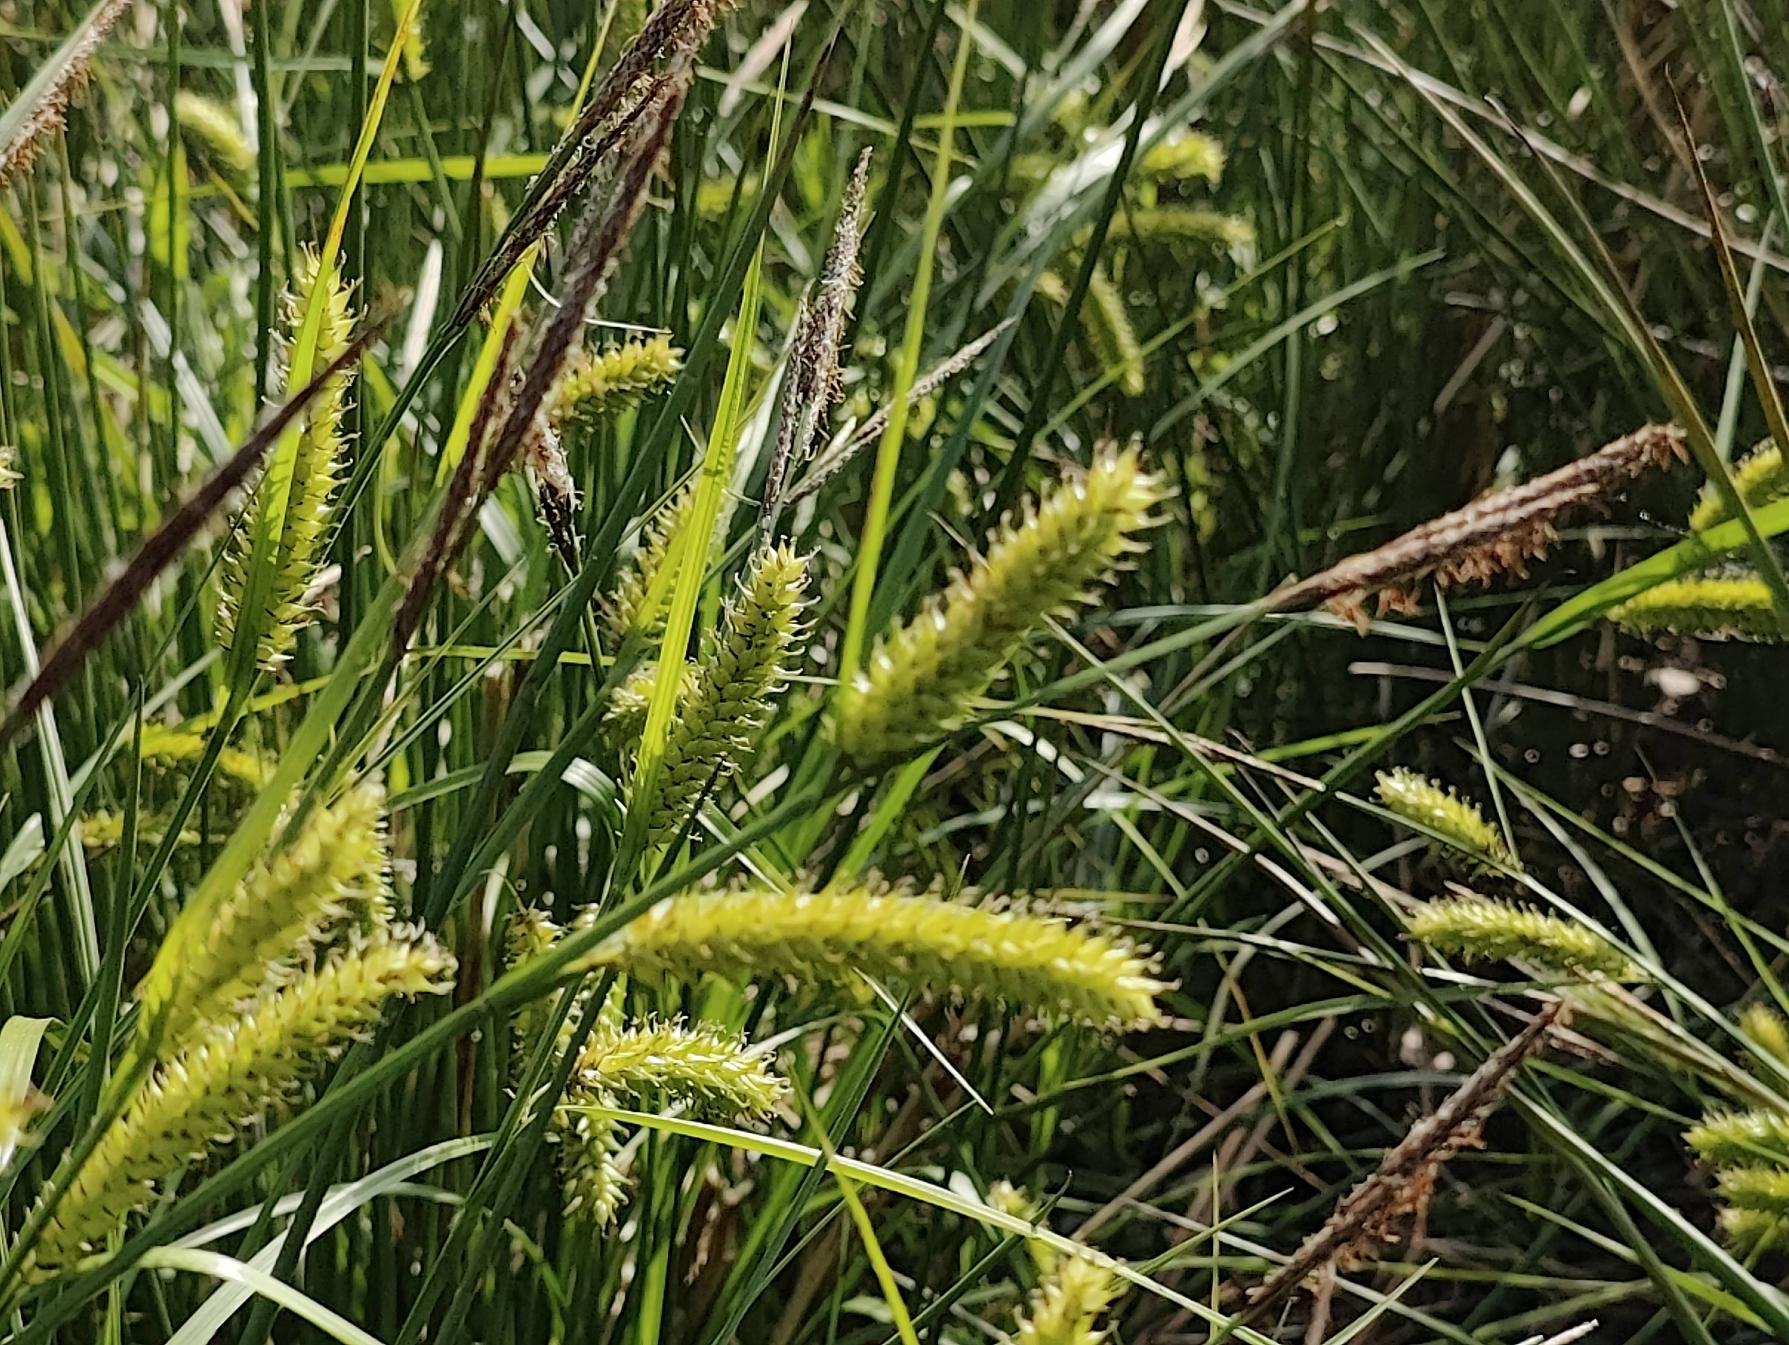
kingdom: Plantae
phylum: Tracheophyta
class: Liliopsida
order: Poales
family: Cyperaceae
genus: Carex
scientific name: Carex vesicaria
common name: Blære-star
